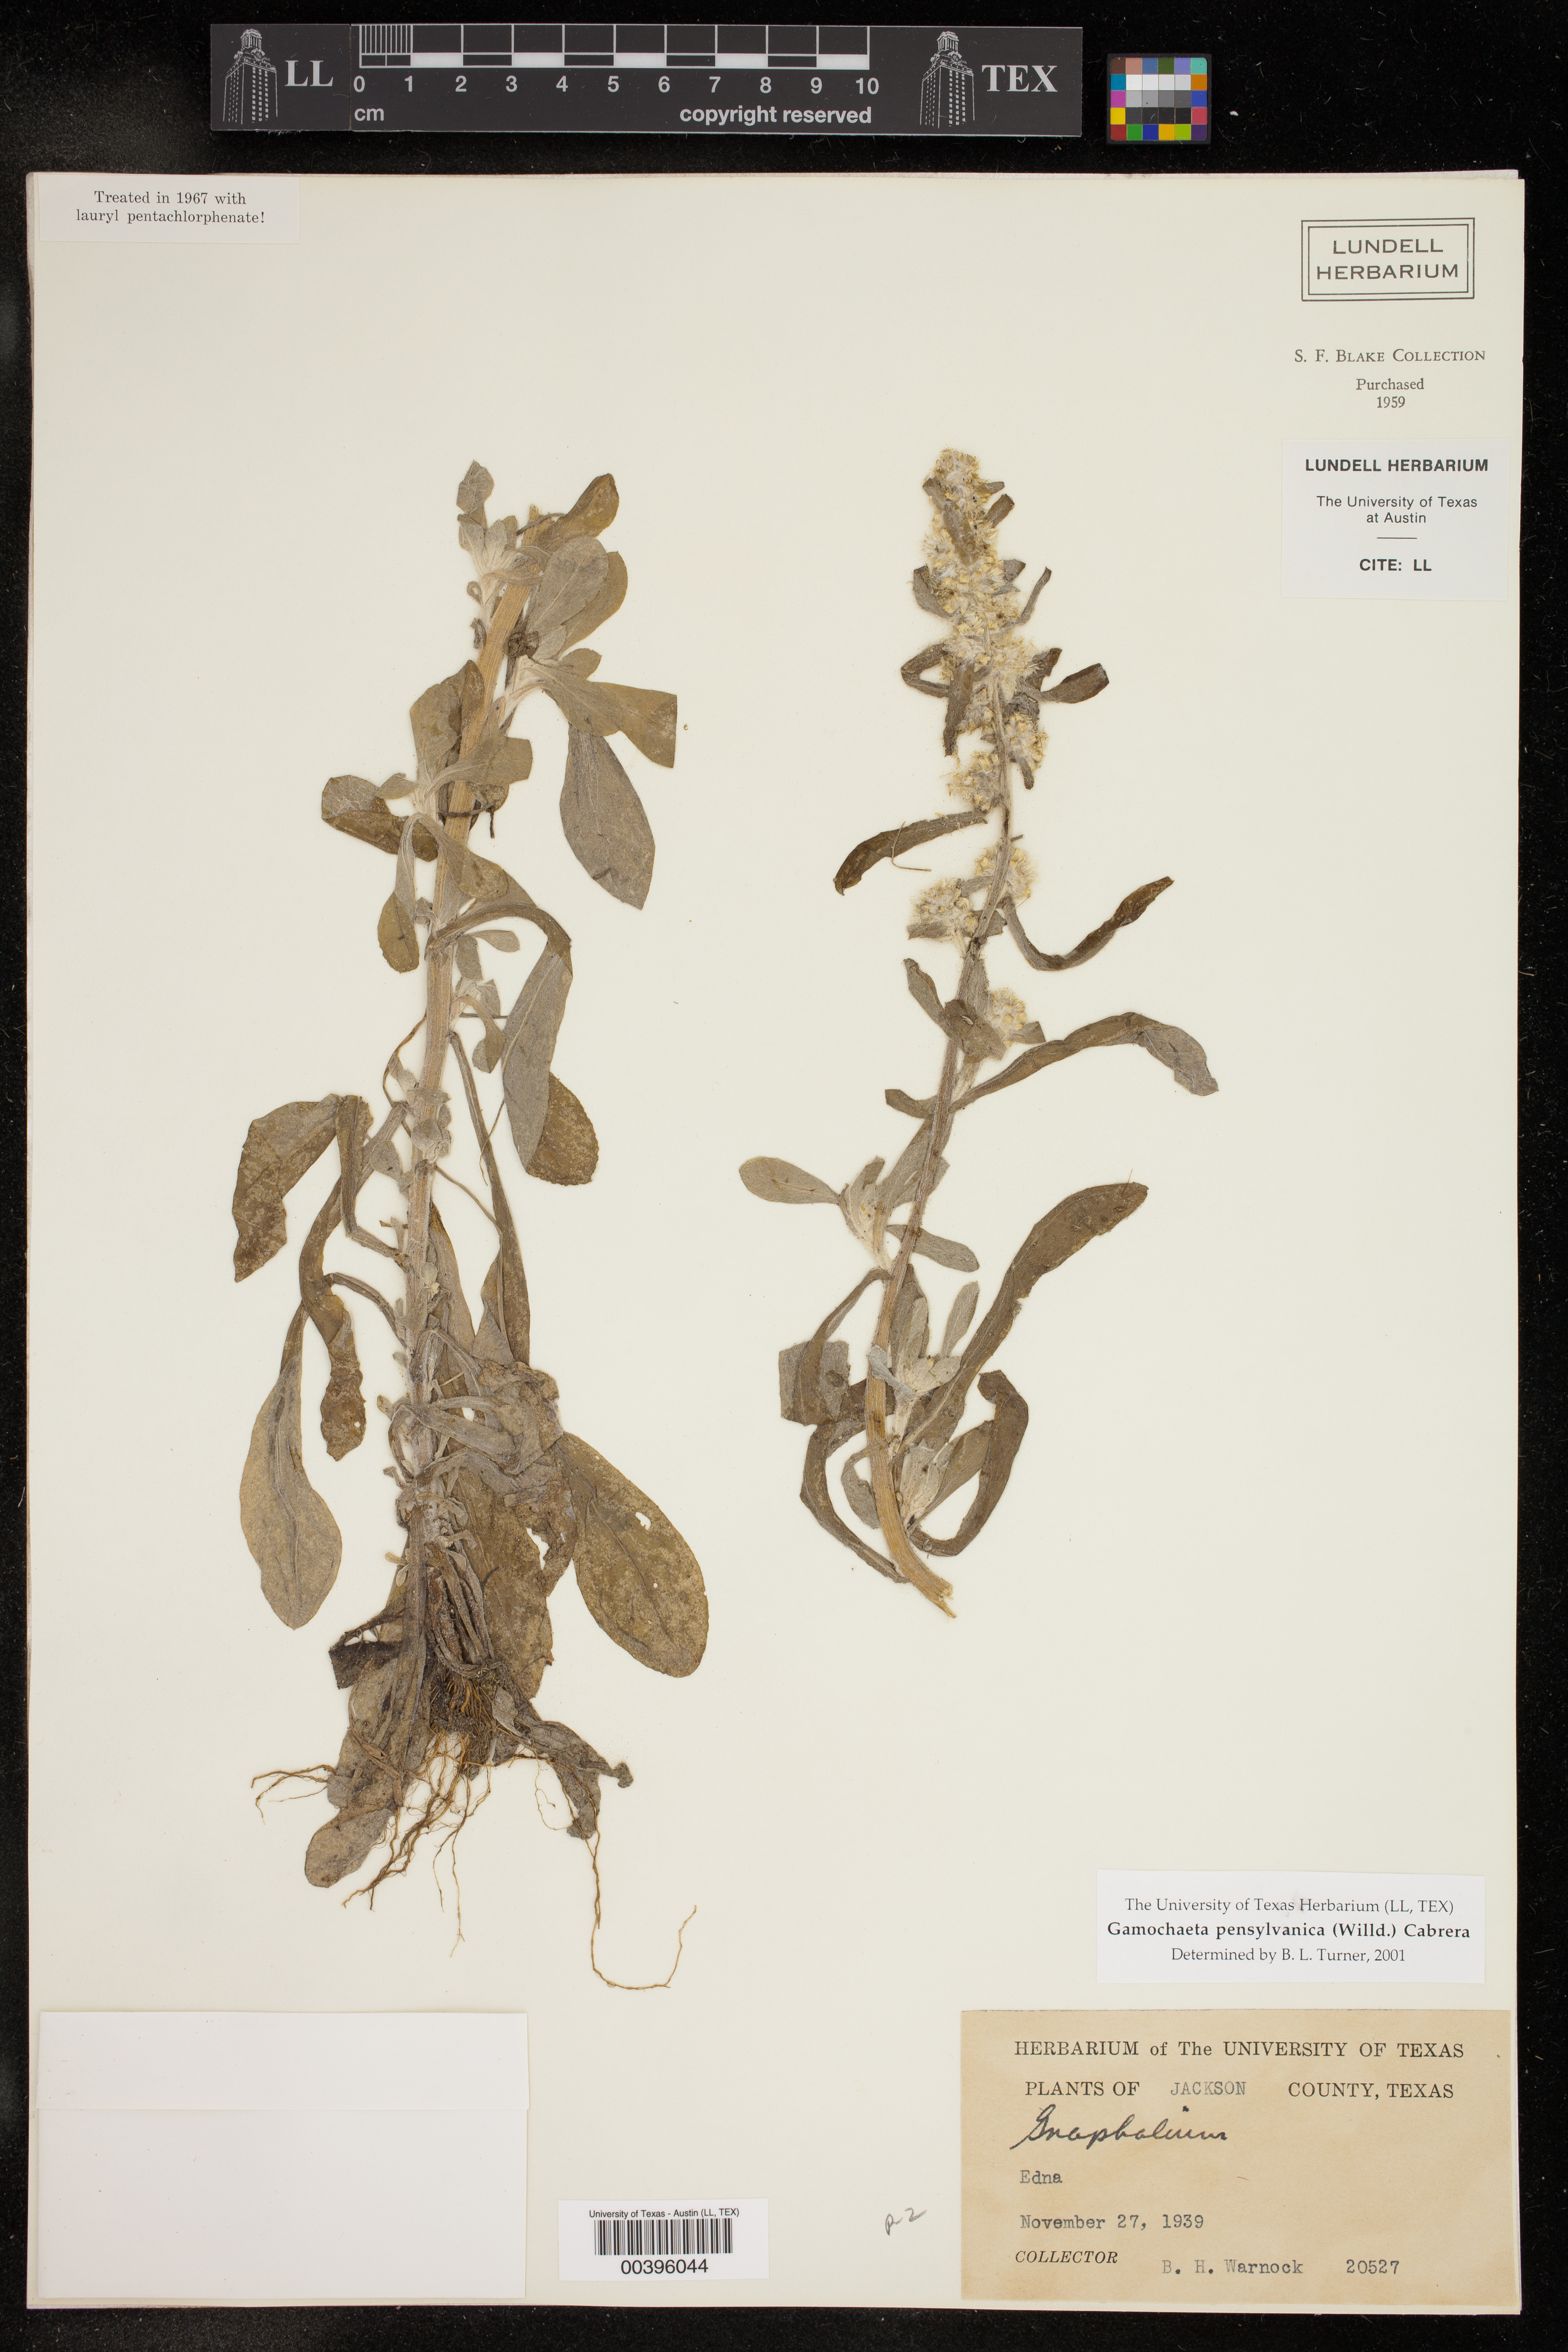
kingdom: Plantae
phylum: Tracheophyta
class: Magnoliopsida
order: Asterales
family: Asteraceae
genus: Gamochaeta
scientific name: Gamochaeta pensylvanica
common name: Pennsylvania everlasting
